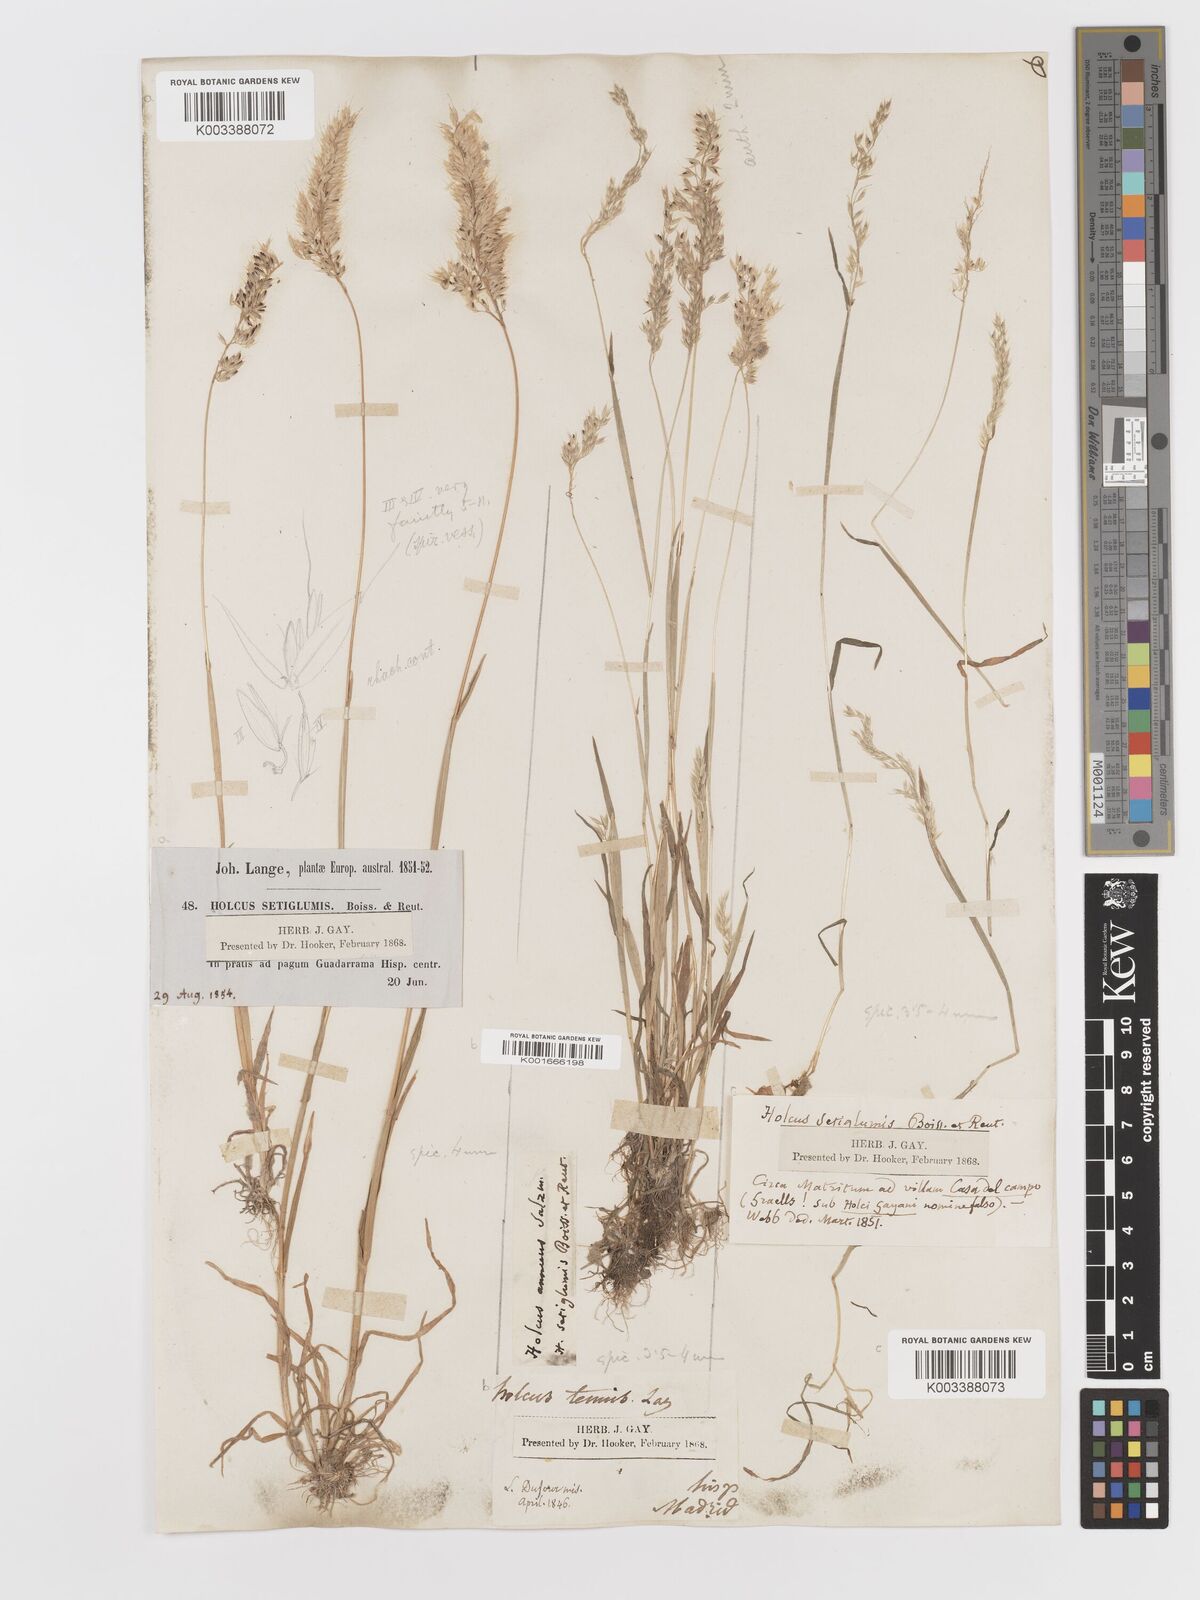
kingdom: Plantae
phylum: Tracheophyta
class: Liliopsida
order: Poales
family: Poaceae
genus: Holcus
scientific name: Holcus annuus
